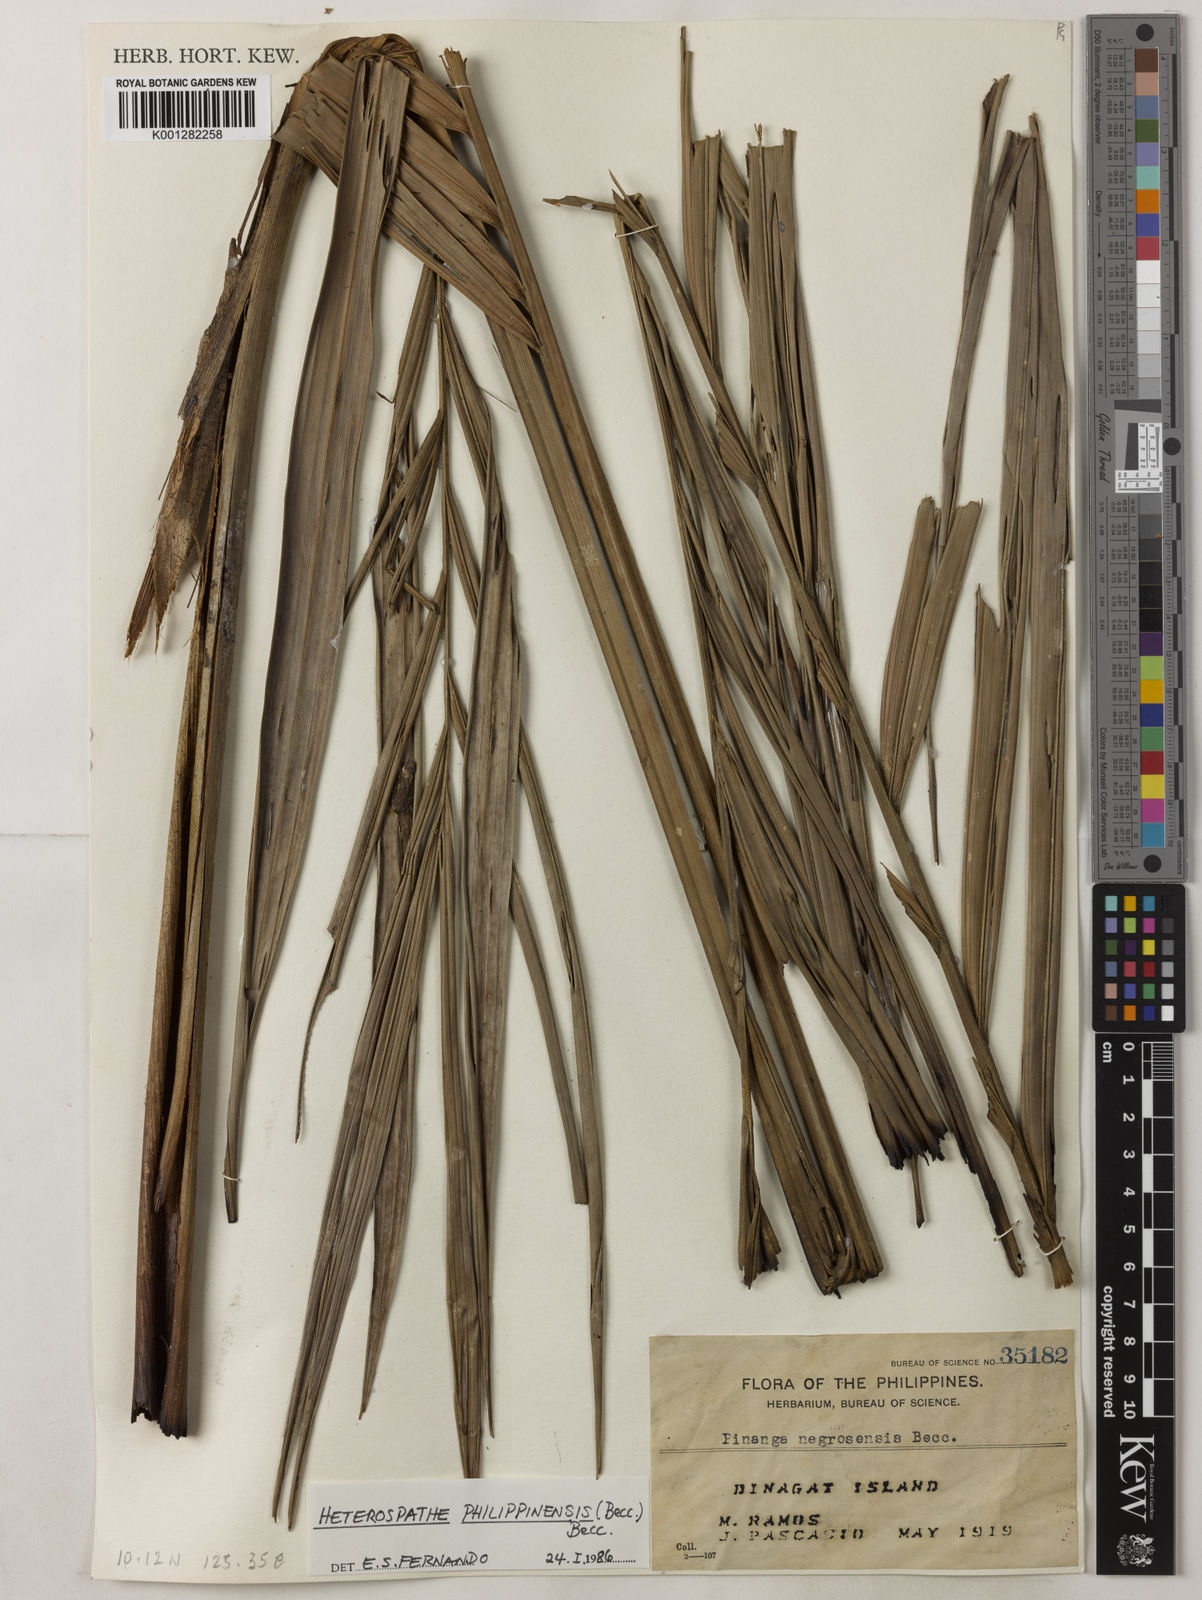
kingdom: Plantae
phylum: Tracheophyta
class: Liliopsida
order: Arecales
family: Arecaceae
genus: Heterospathe
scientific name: Heterospathe philippinensis
